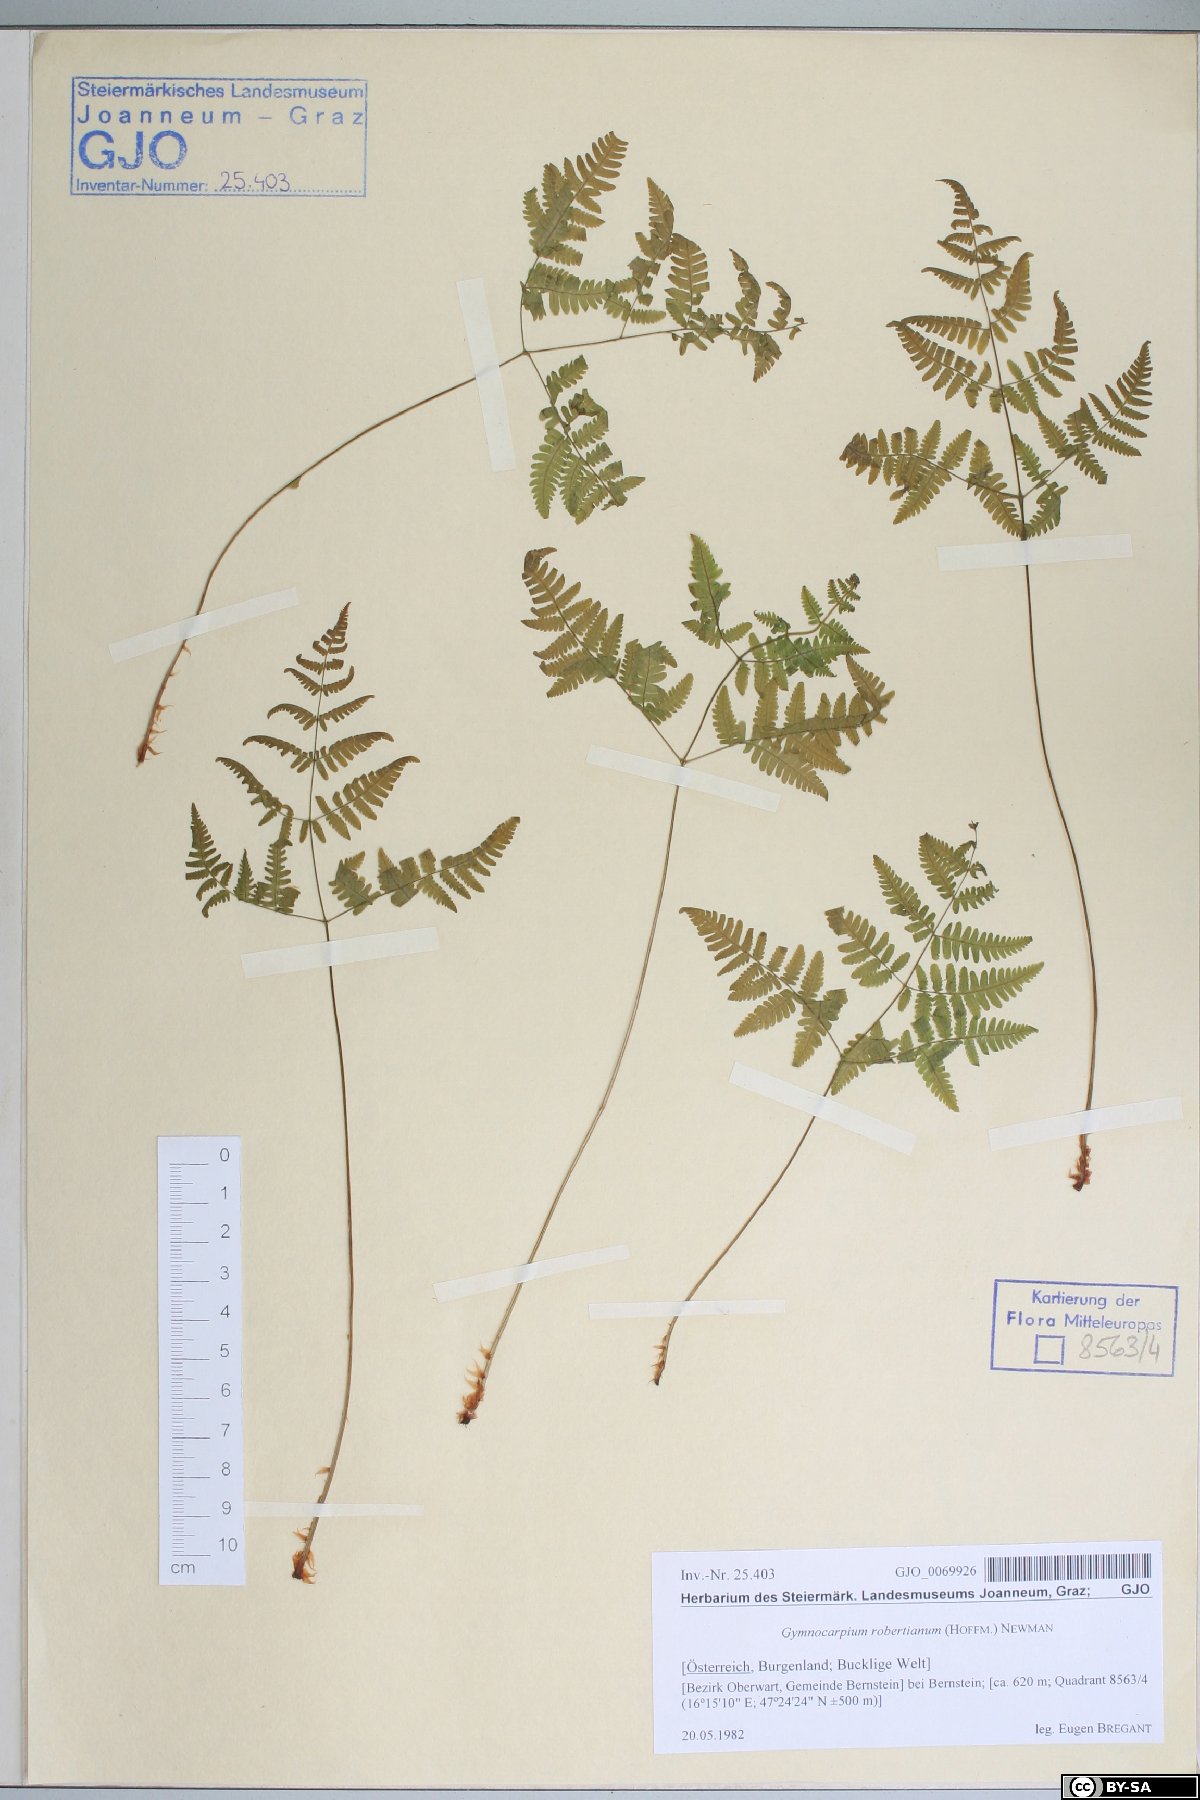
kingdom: Plantae
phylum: Tracheophyta
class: Polypodiopsida
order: Polypodiales
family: Cystopteridaceae
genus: Gymnocarpium
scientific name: Gymnocarpium robertianum
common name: Limestone fern
